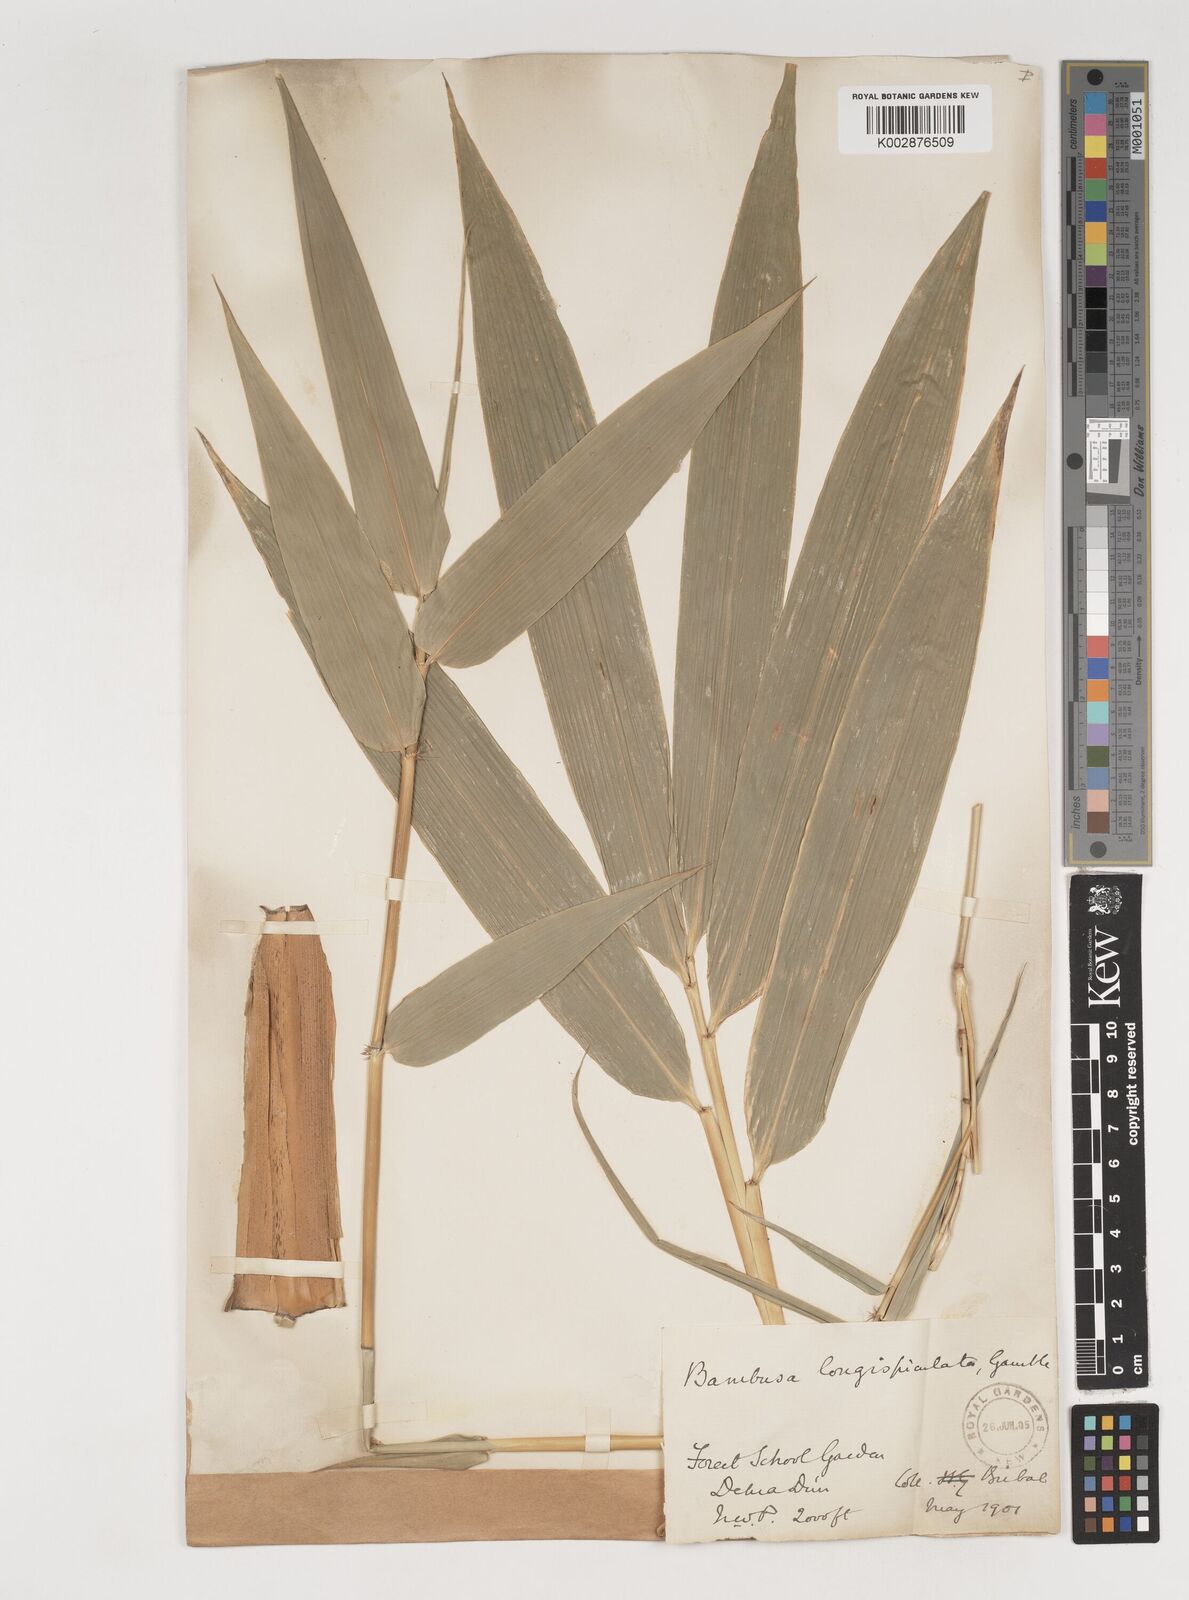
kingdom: Plantae
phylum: Tracheophyta
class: Liliopsida
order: Poales
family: Poaceae
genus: Bambusa
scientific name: Bambusa longispiculata
